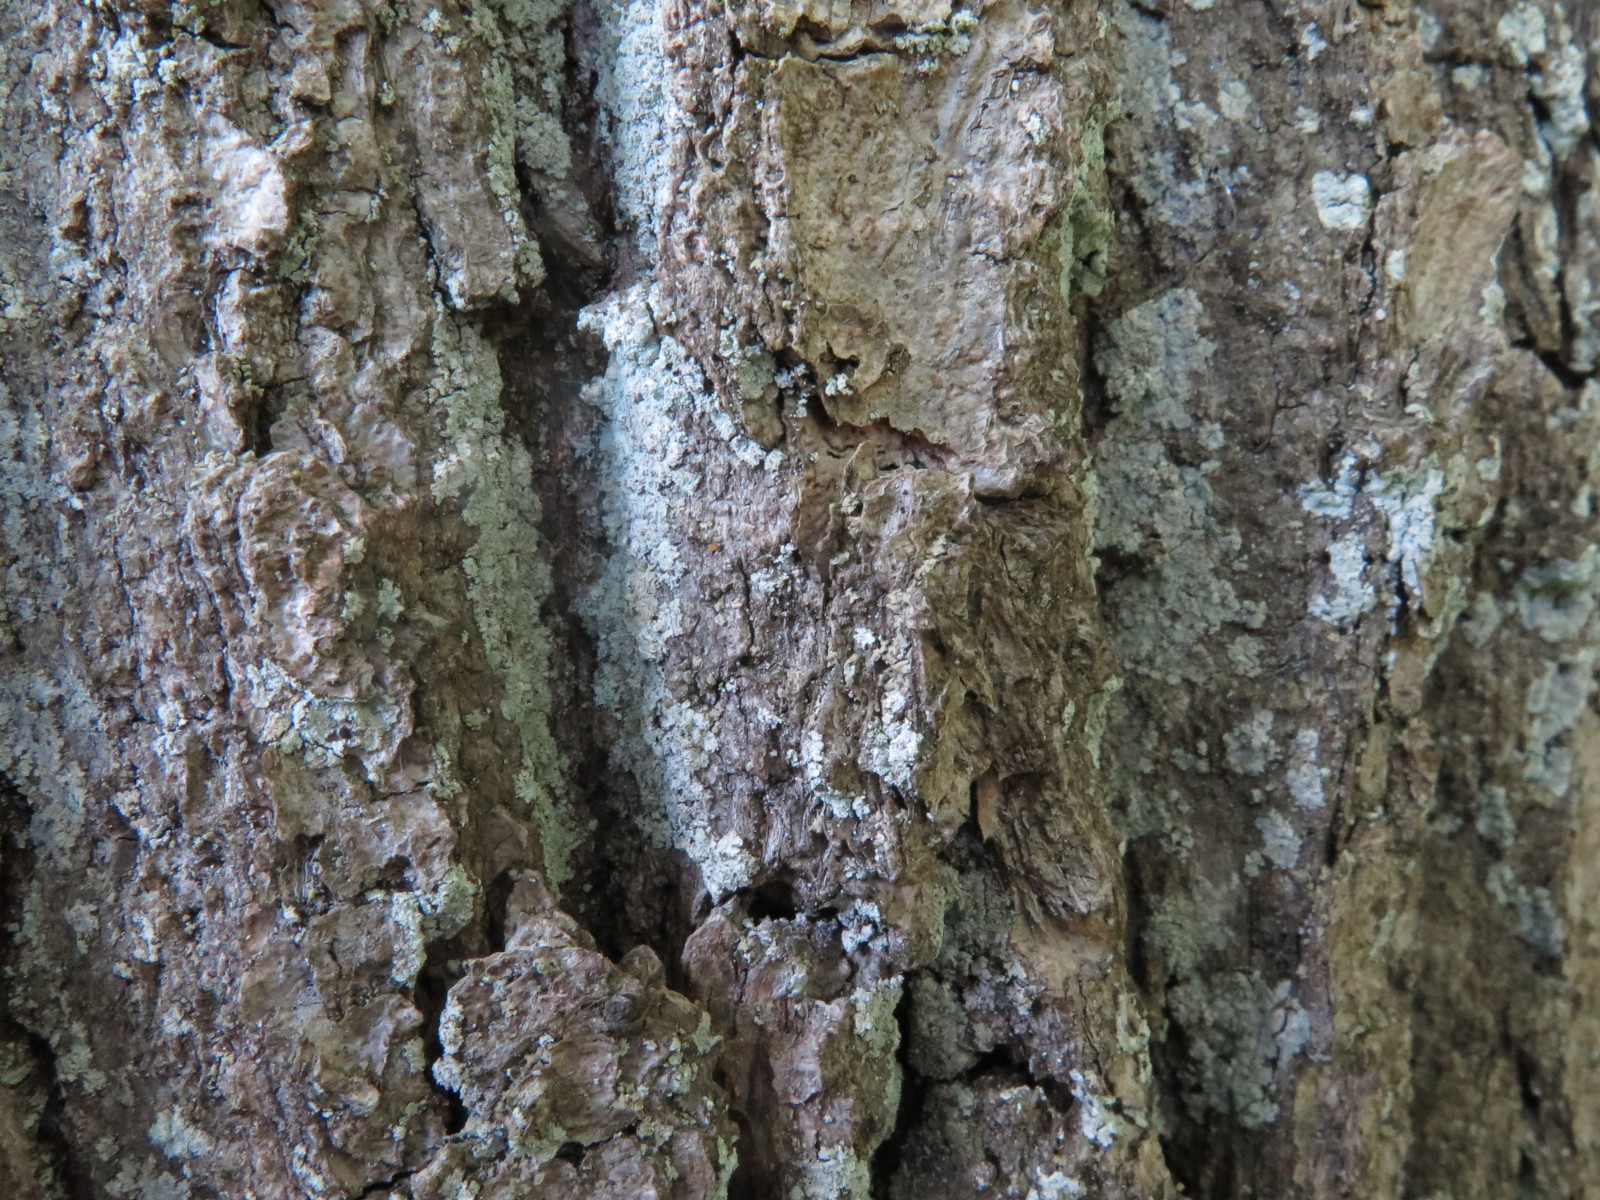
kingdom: Fungi
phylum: Ascomycota
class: Lecanoromycetes
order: Lecanorales
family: Stereocaulaceae
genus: Lepraria
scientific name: Lepraria incana
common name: almindelig støvlav
